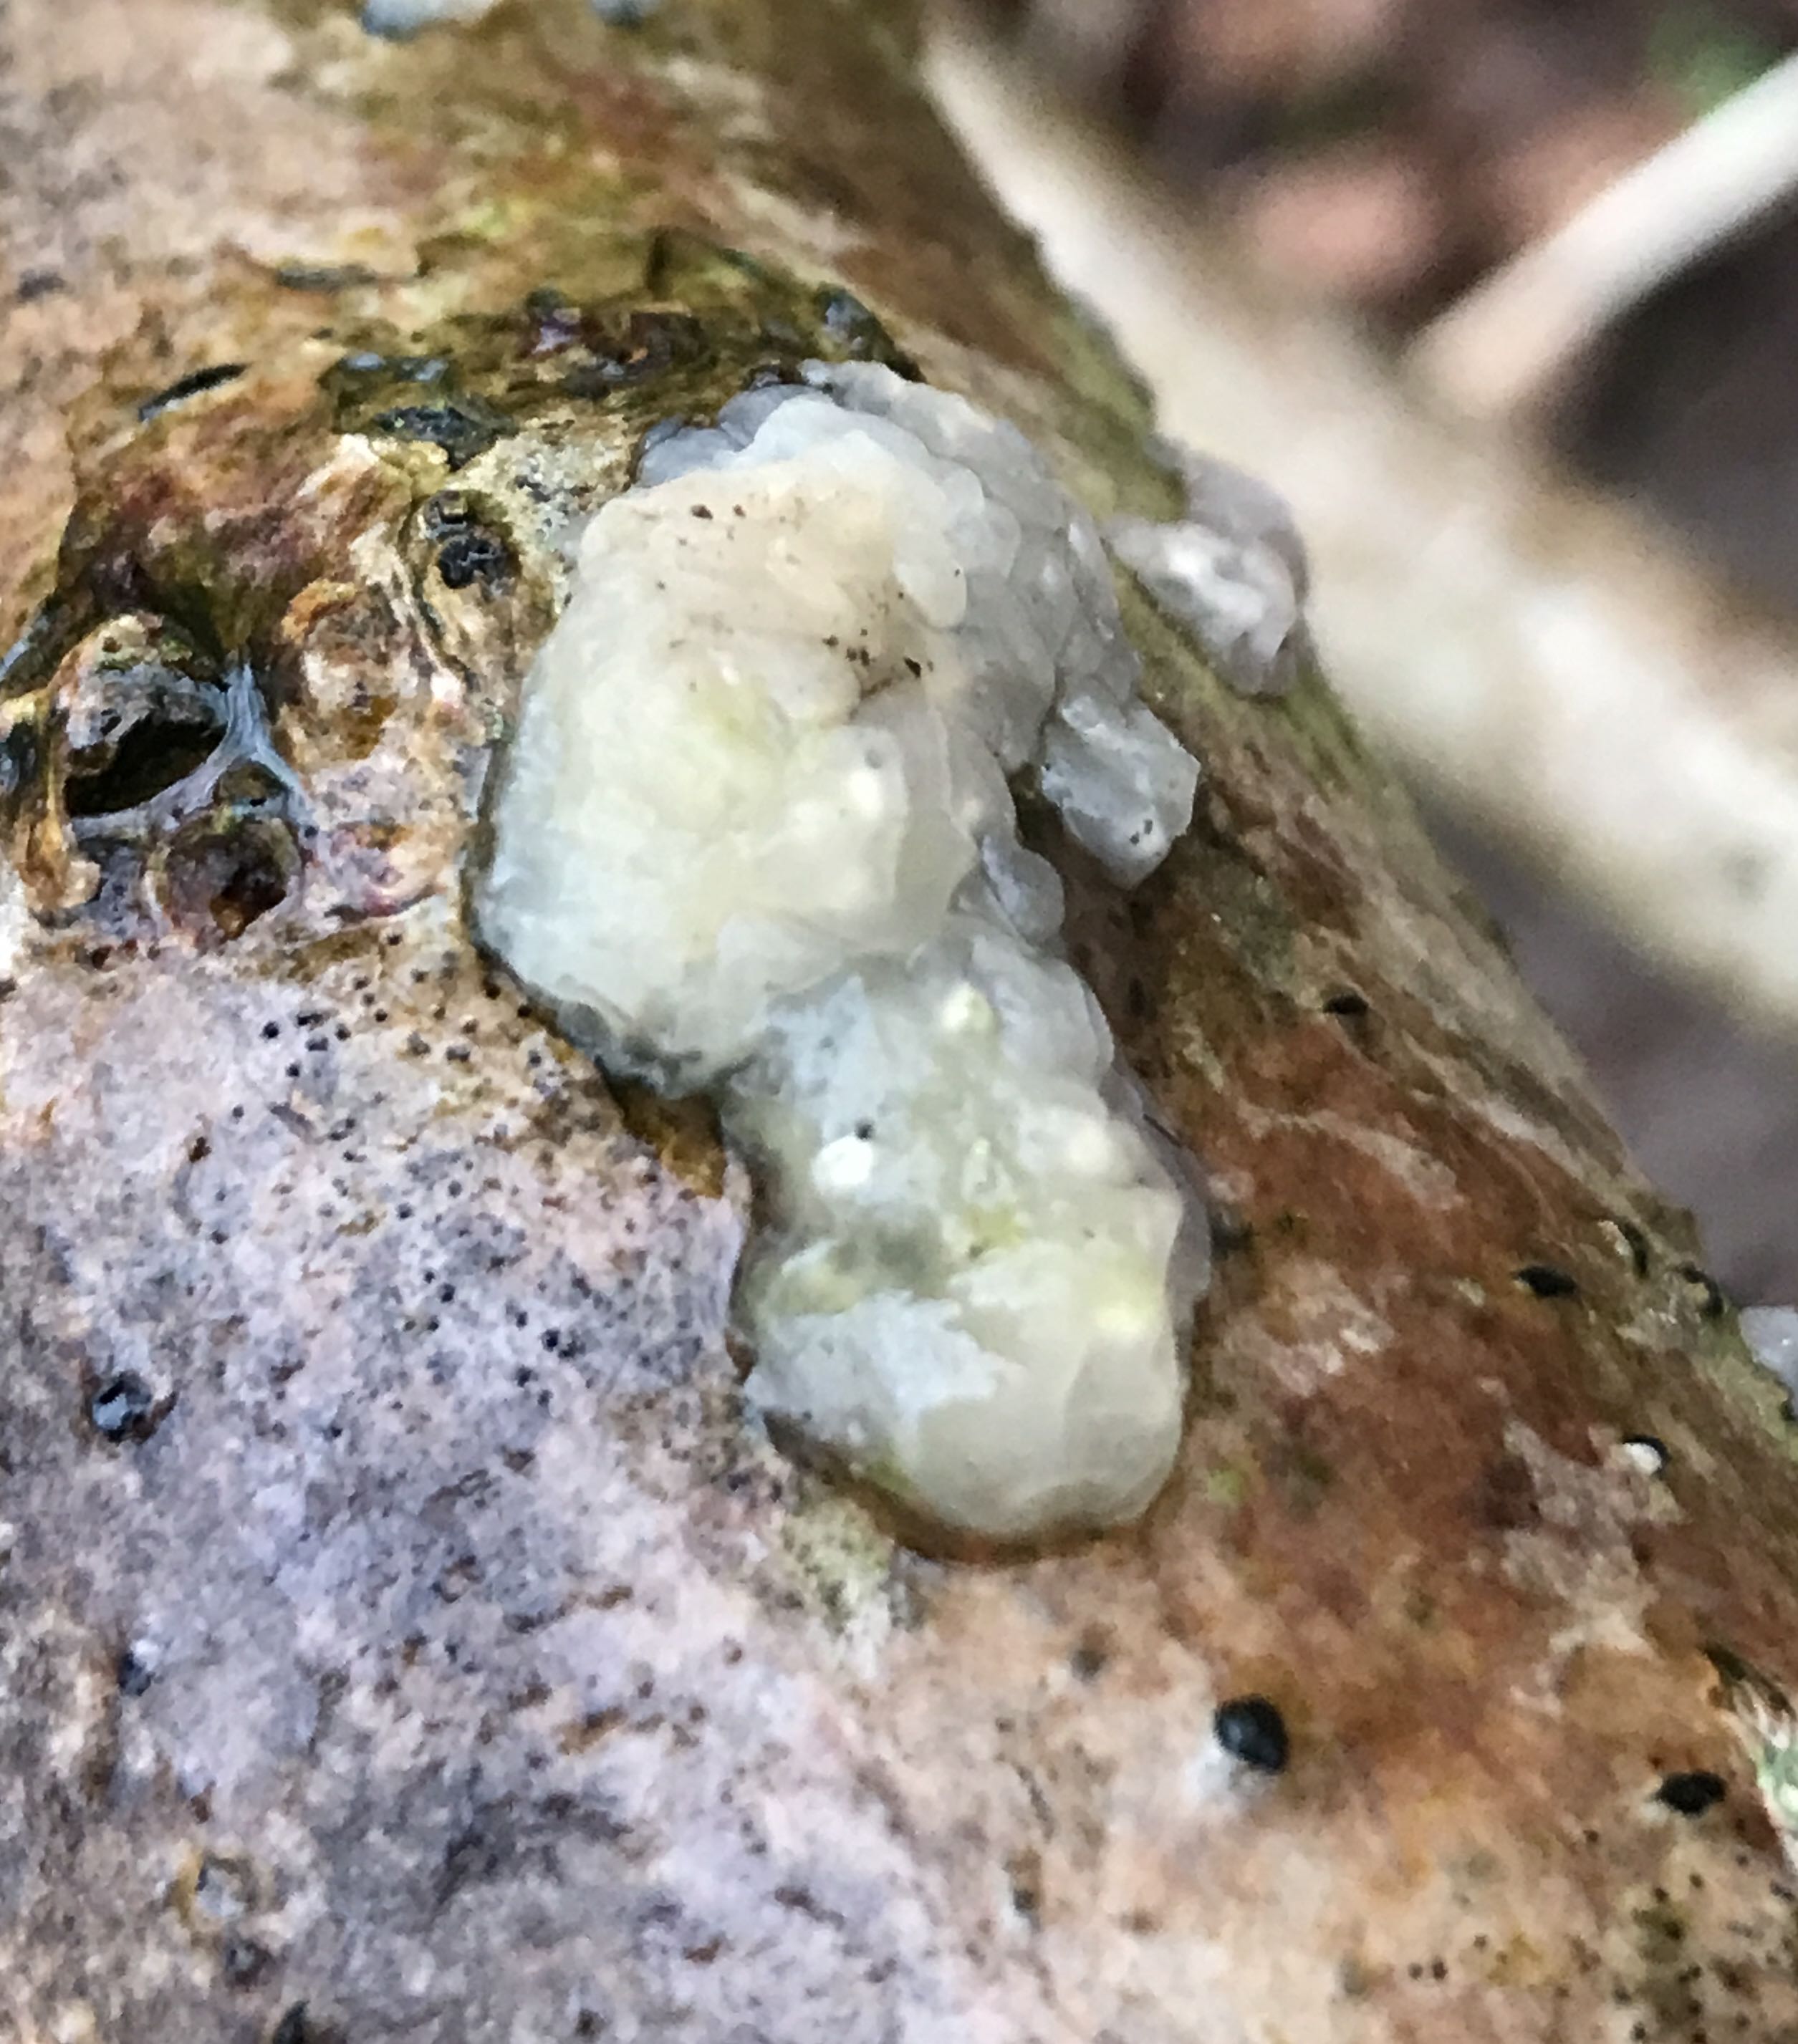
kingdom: Fungi
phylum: Basidiomycota
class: Agaricomycetes
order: Auriculariales
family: Hyaloriaceae
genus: Myxarium
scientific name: Myxarium nucleatum
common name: klar bævretop
